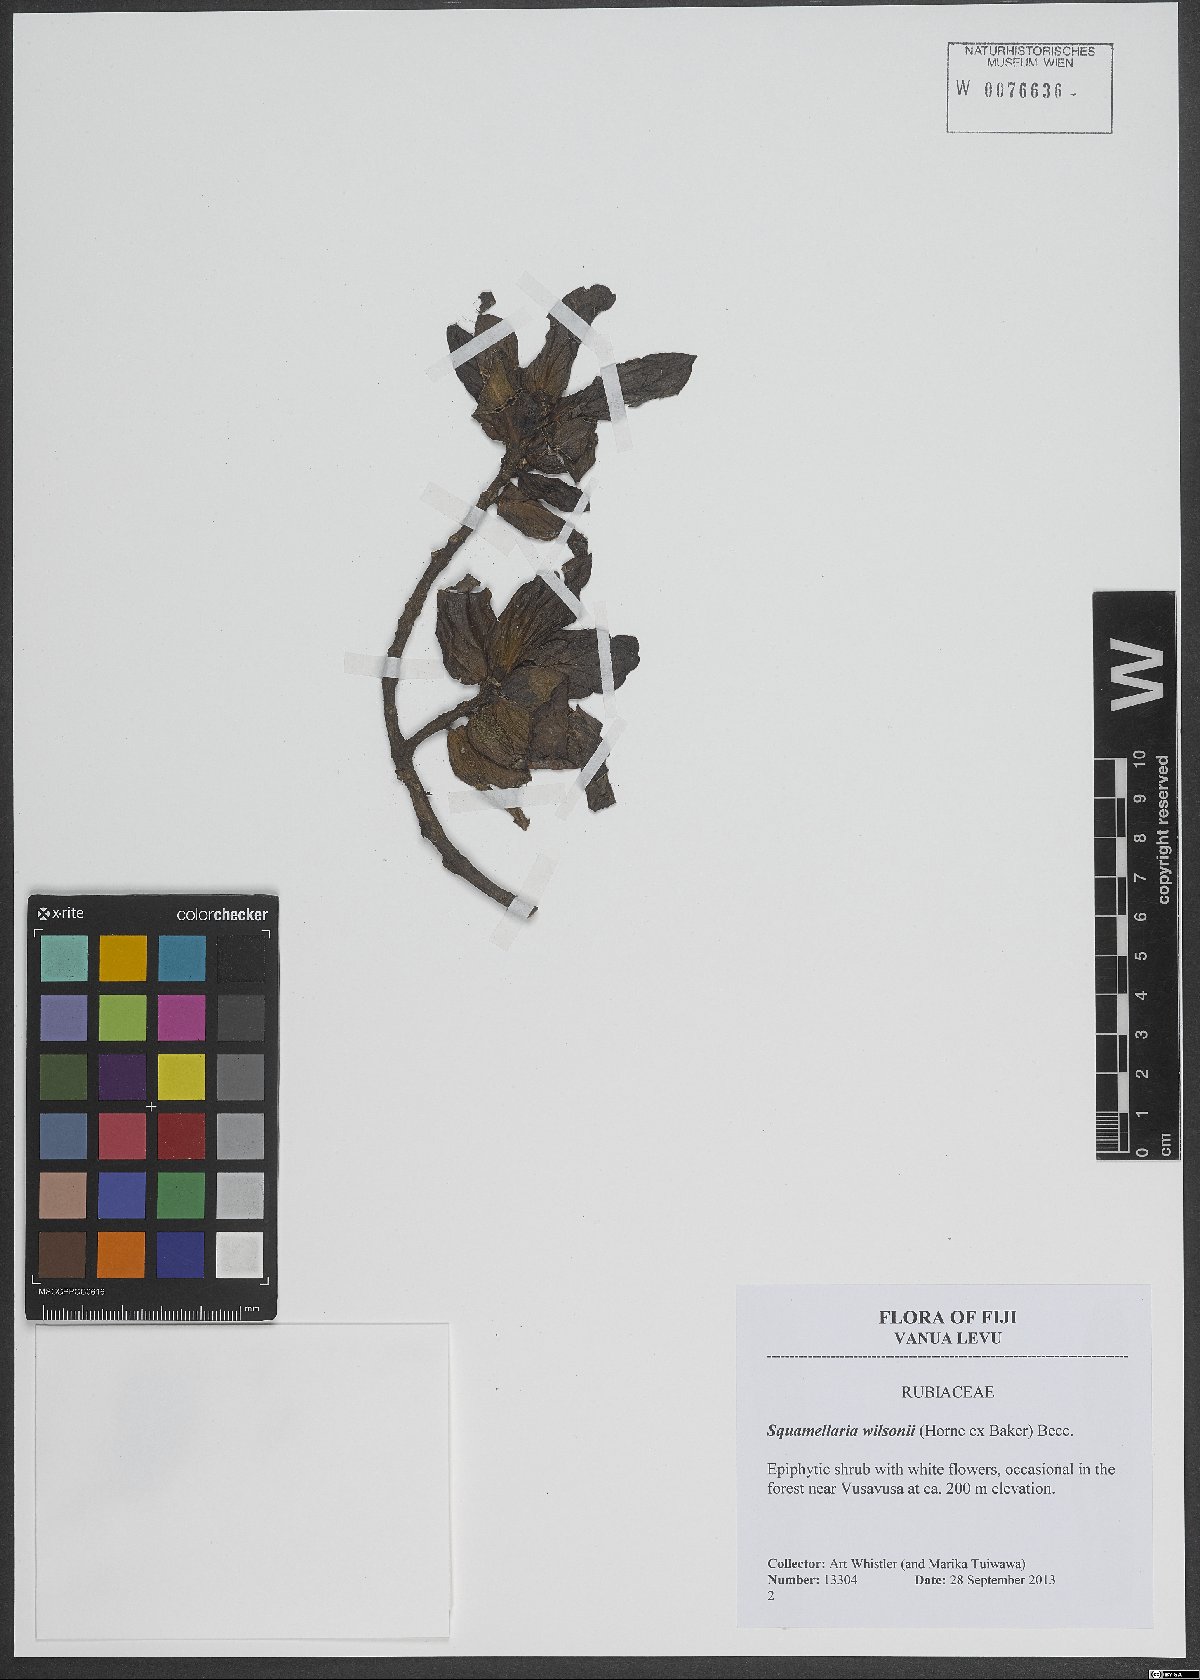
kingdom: Plantae
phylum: Tracheophyta
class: Magnoliopsida
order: Gentianales
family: Rubiaceae
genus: Squamellaria
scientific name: Squamellaria imberbis
